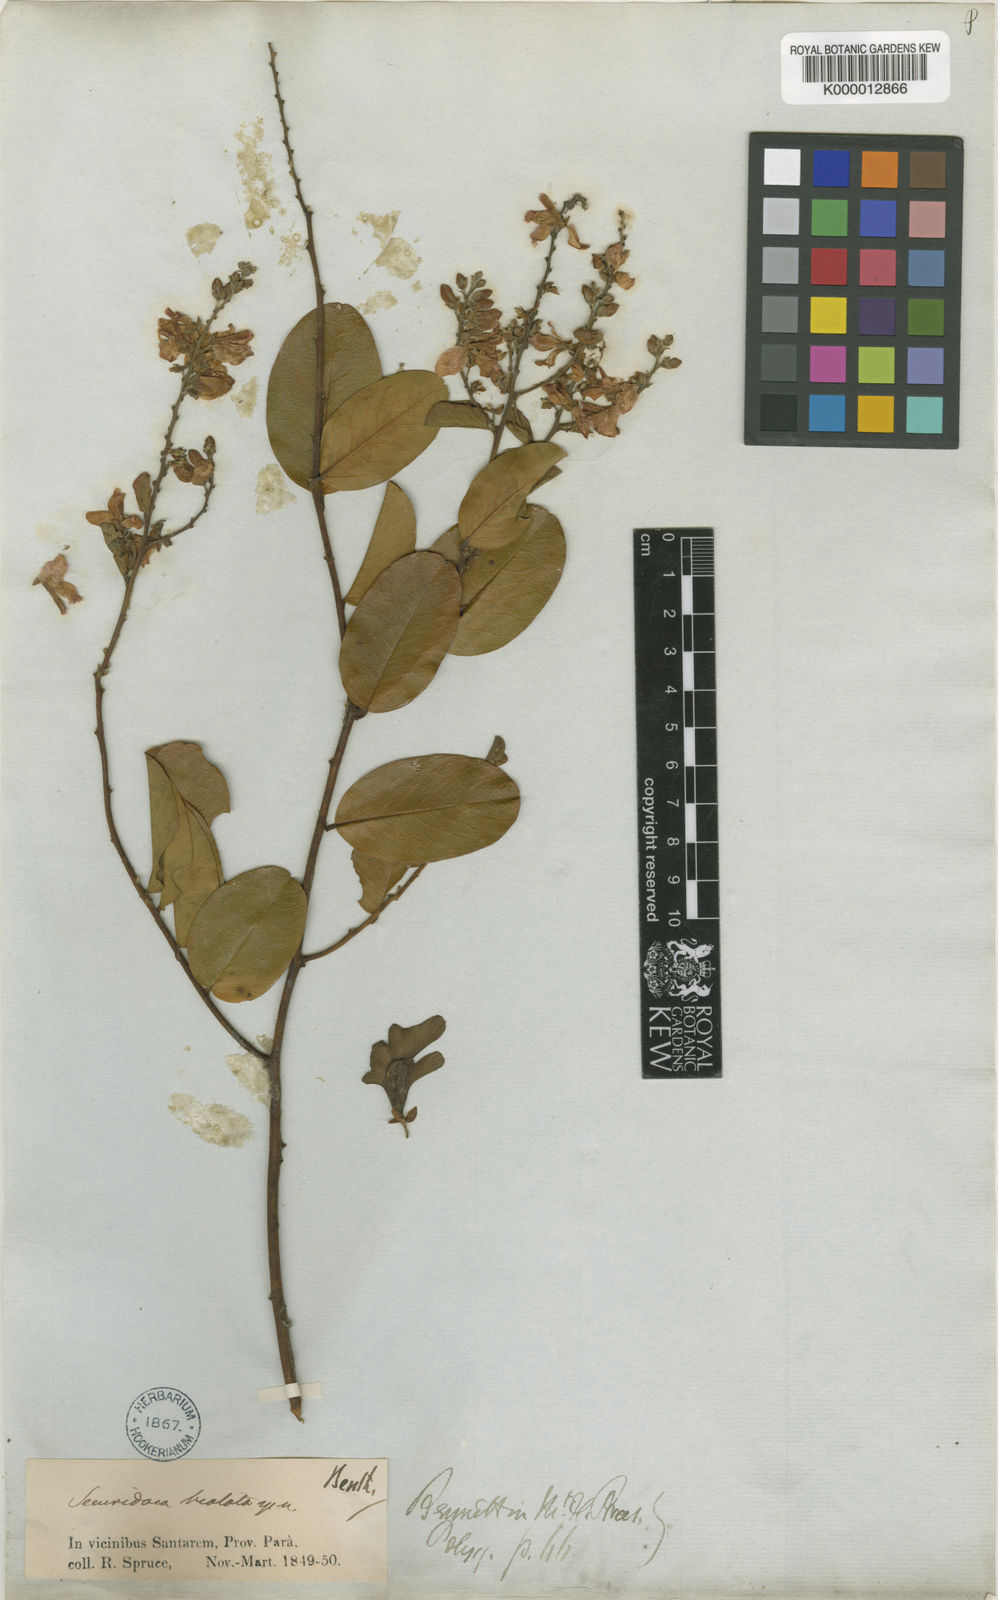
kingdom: Plantae
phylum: Tracheophyta
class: Magnoliopsida
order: Fabales
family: Polygalaceae
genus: Securidaca
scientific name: Securidaca bialata
